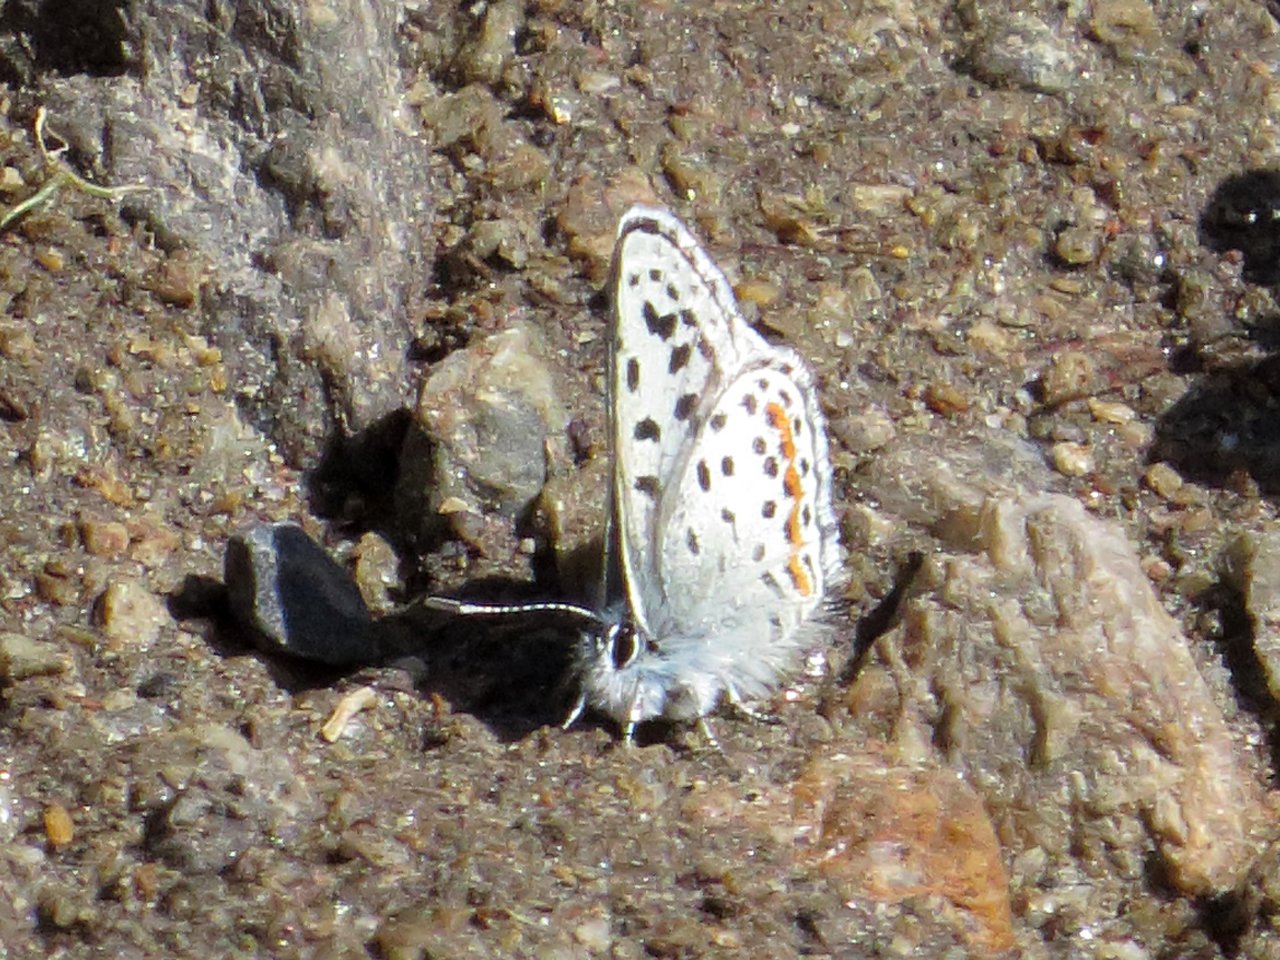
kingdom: Animalia
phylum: Arthropoda
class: Insecta
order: Lepidoptera
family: Lycaenidae
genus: Euphilotes
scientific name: Euphilotes enoptes
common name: Columbia Blue
